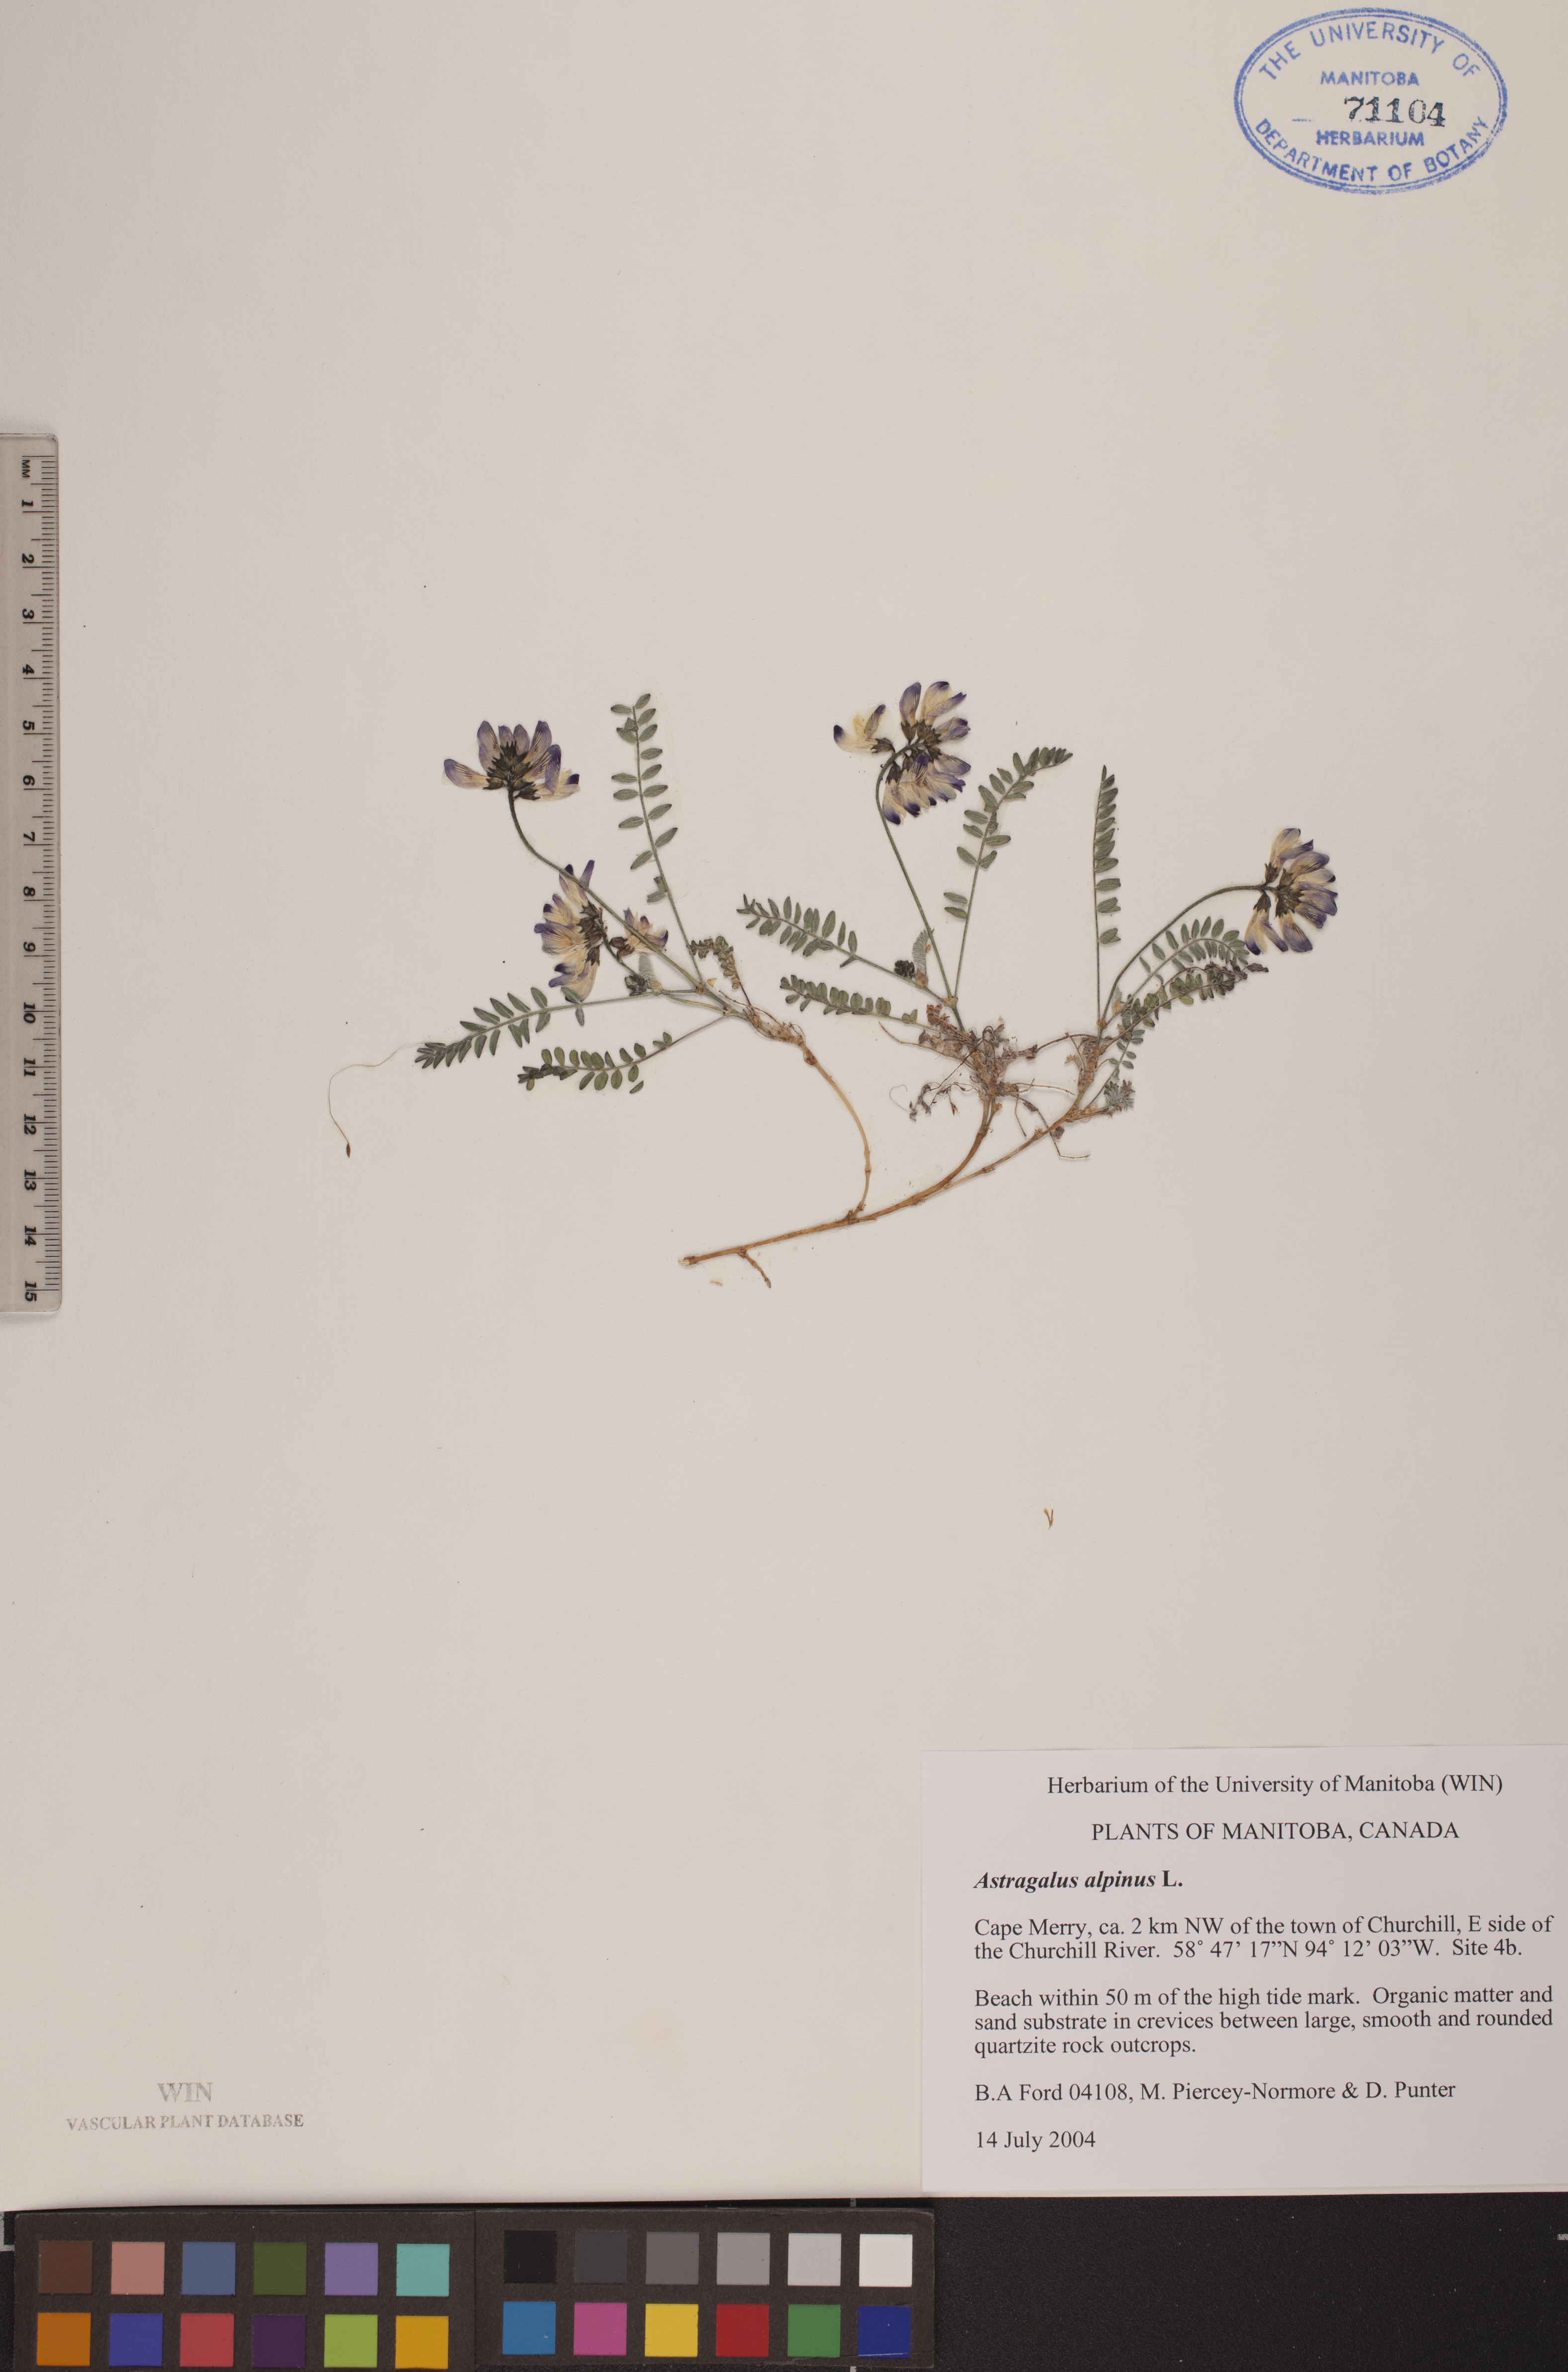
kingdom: Plantae
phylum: Tracheophyta
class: Magnoliopsida
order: Fabales
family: Fabaceae
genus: Astragalus
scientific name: Astragalus alpinus
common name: Alpine milk-vetch
